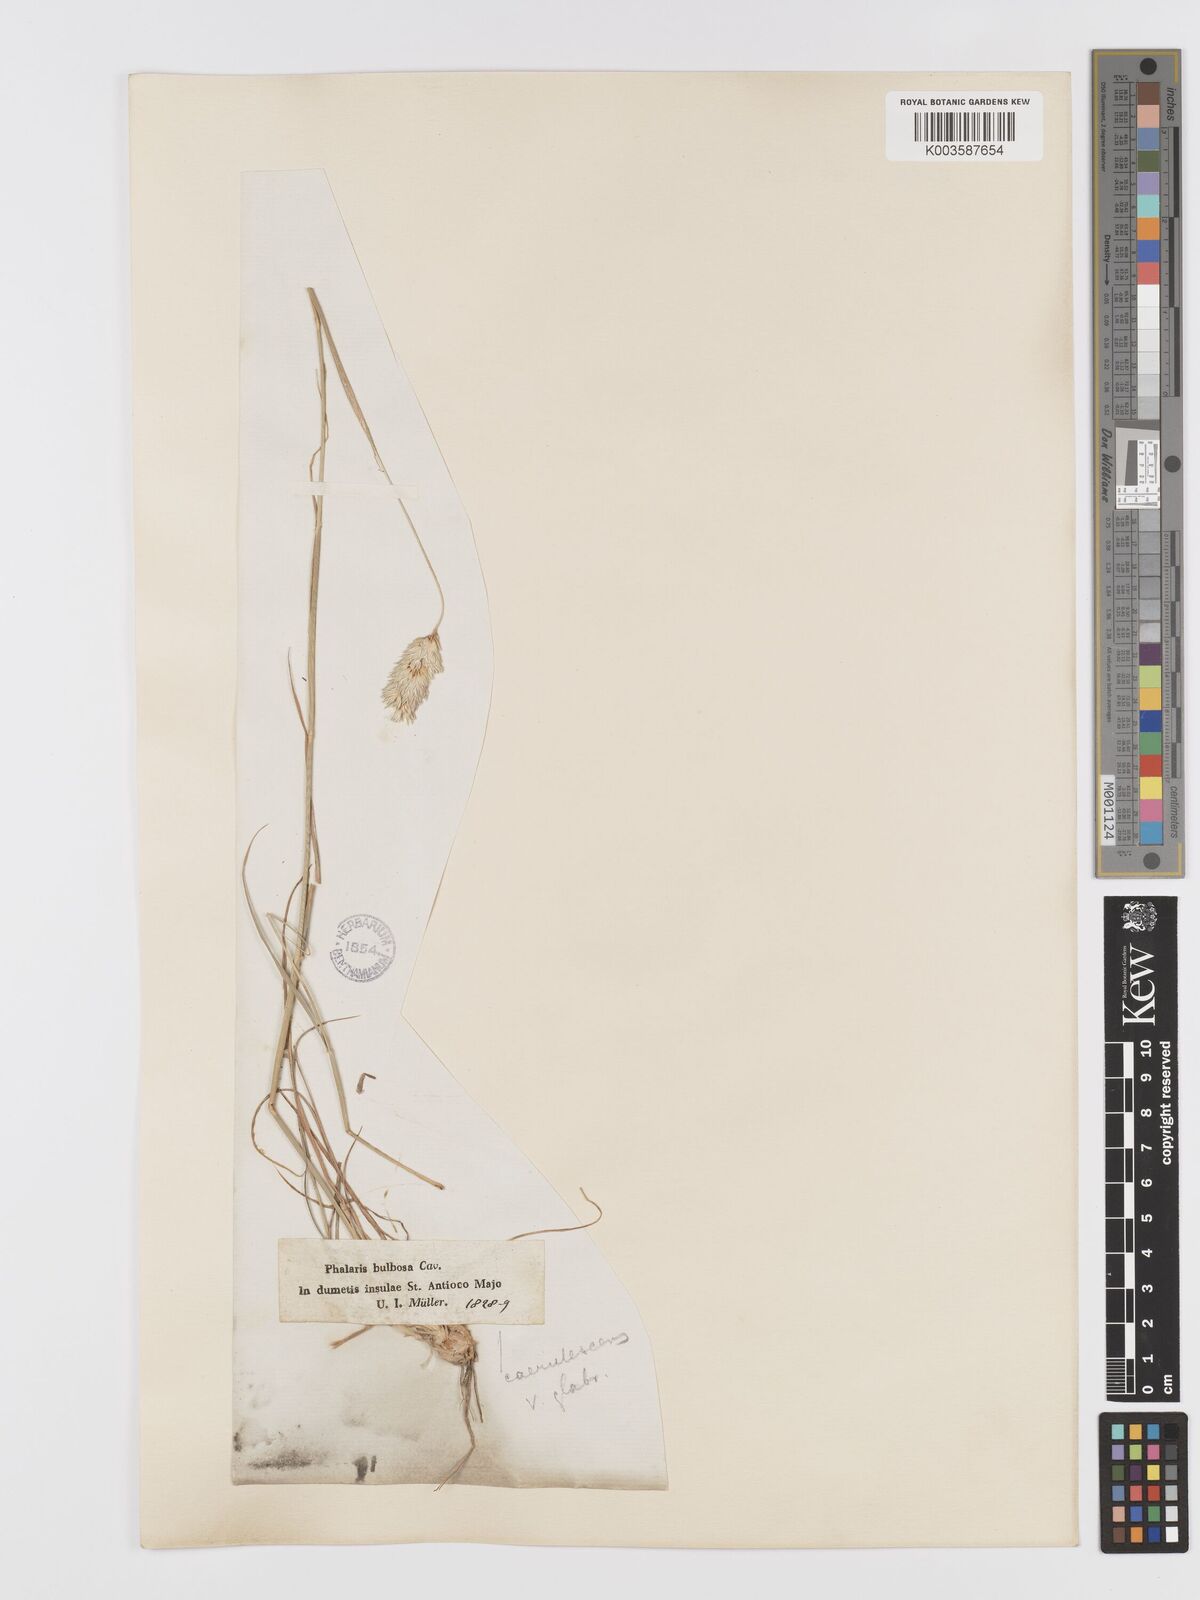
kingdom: Plantae
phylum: Tracheophyta
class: Liliopsida
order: Poales
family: Poaceae
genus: Phalaris
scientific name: Phalaris coerulescens
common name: Sunolgrass
